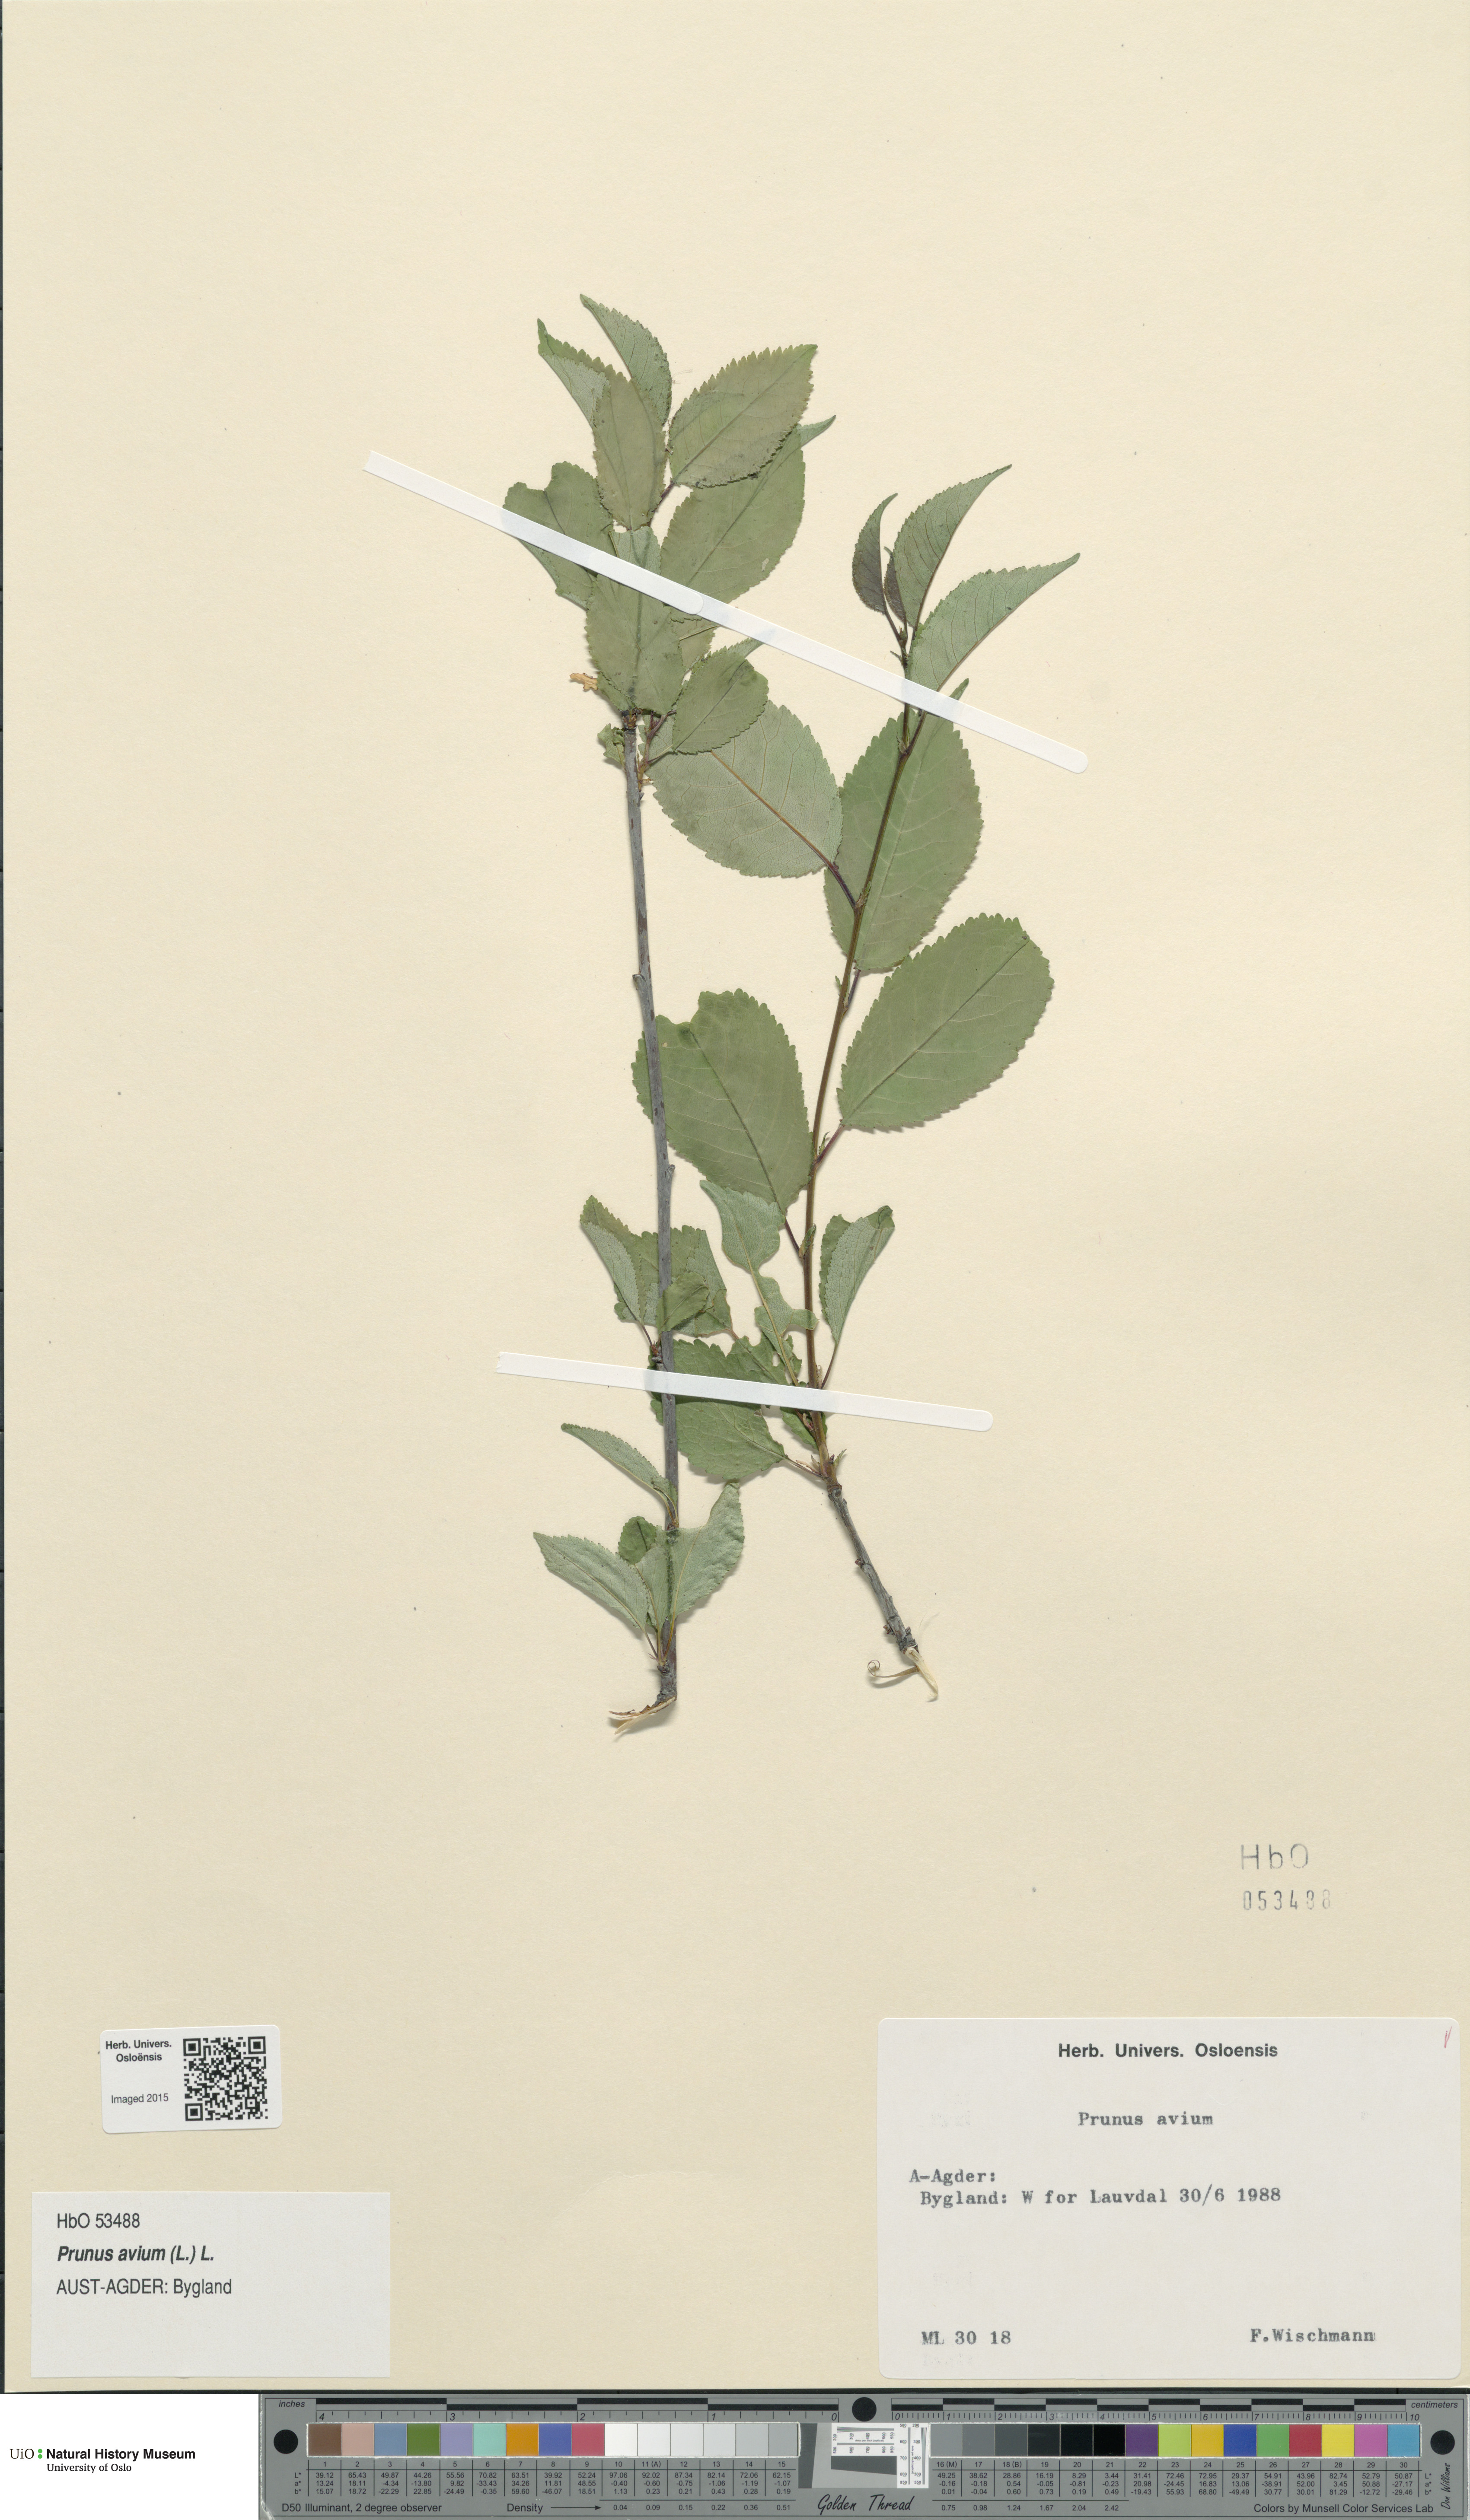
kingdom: Plantae
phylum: Tracheophyta
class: Magnoliopsida
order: Rosales
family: Rosaceae
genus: Prunus
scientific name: Prunus avium
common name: Sweet cherry
